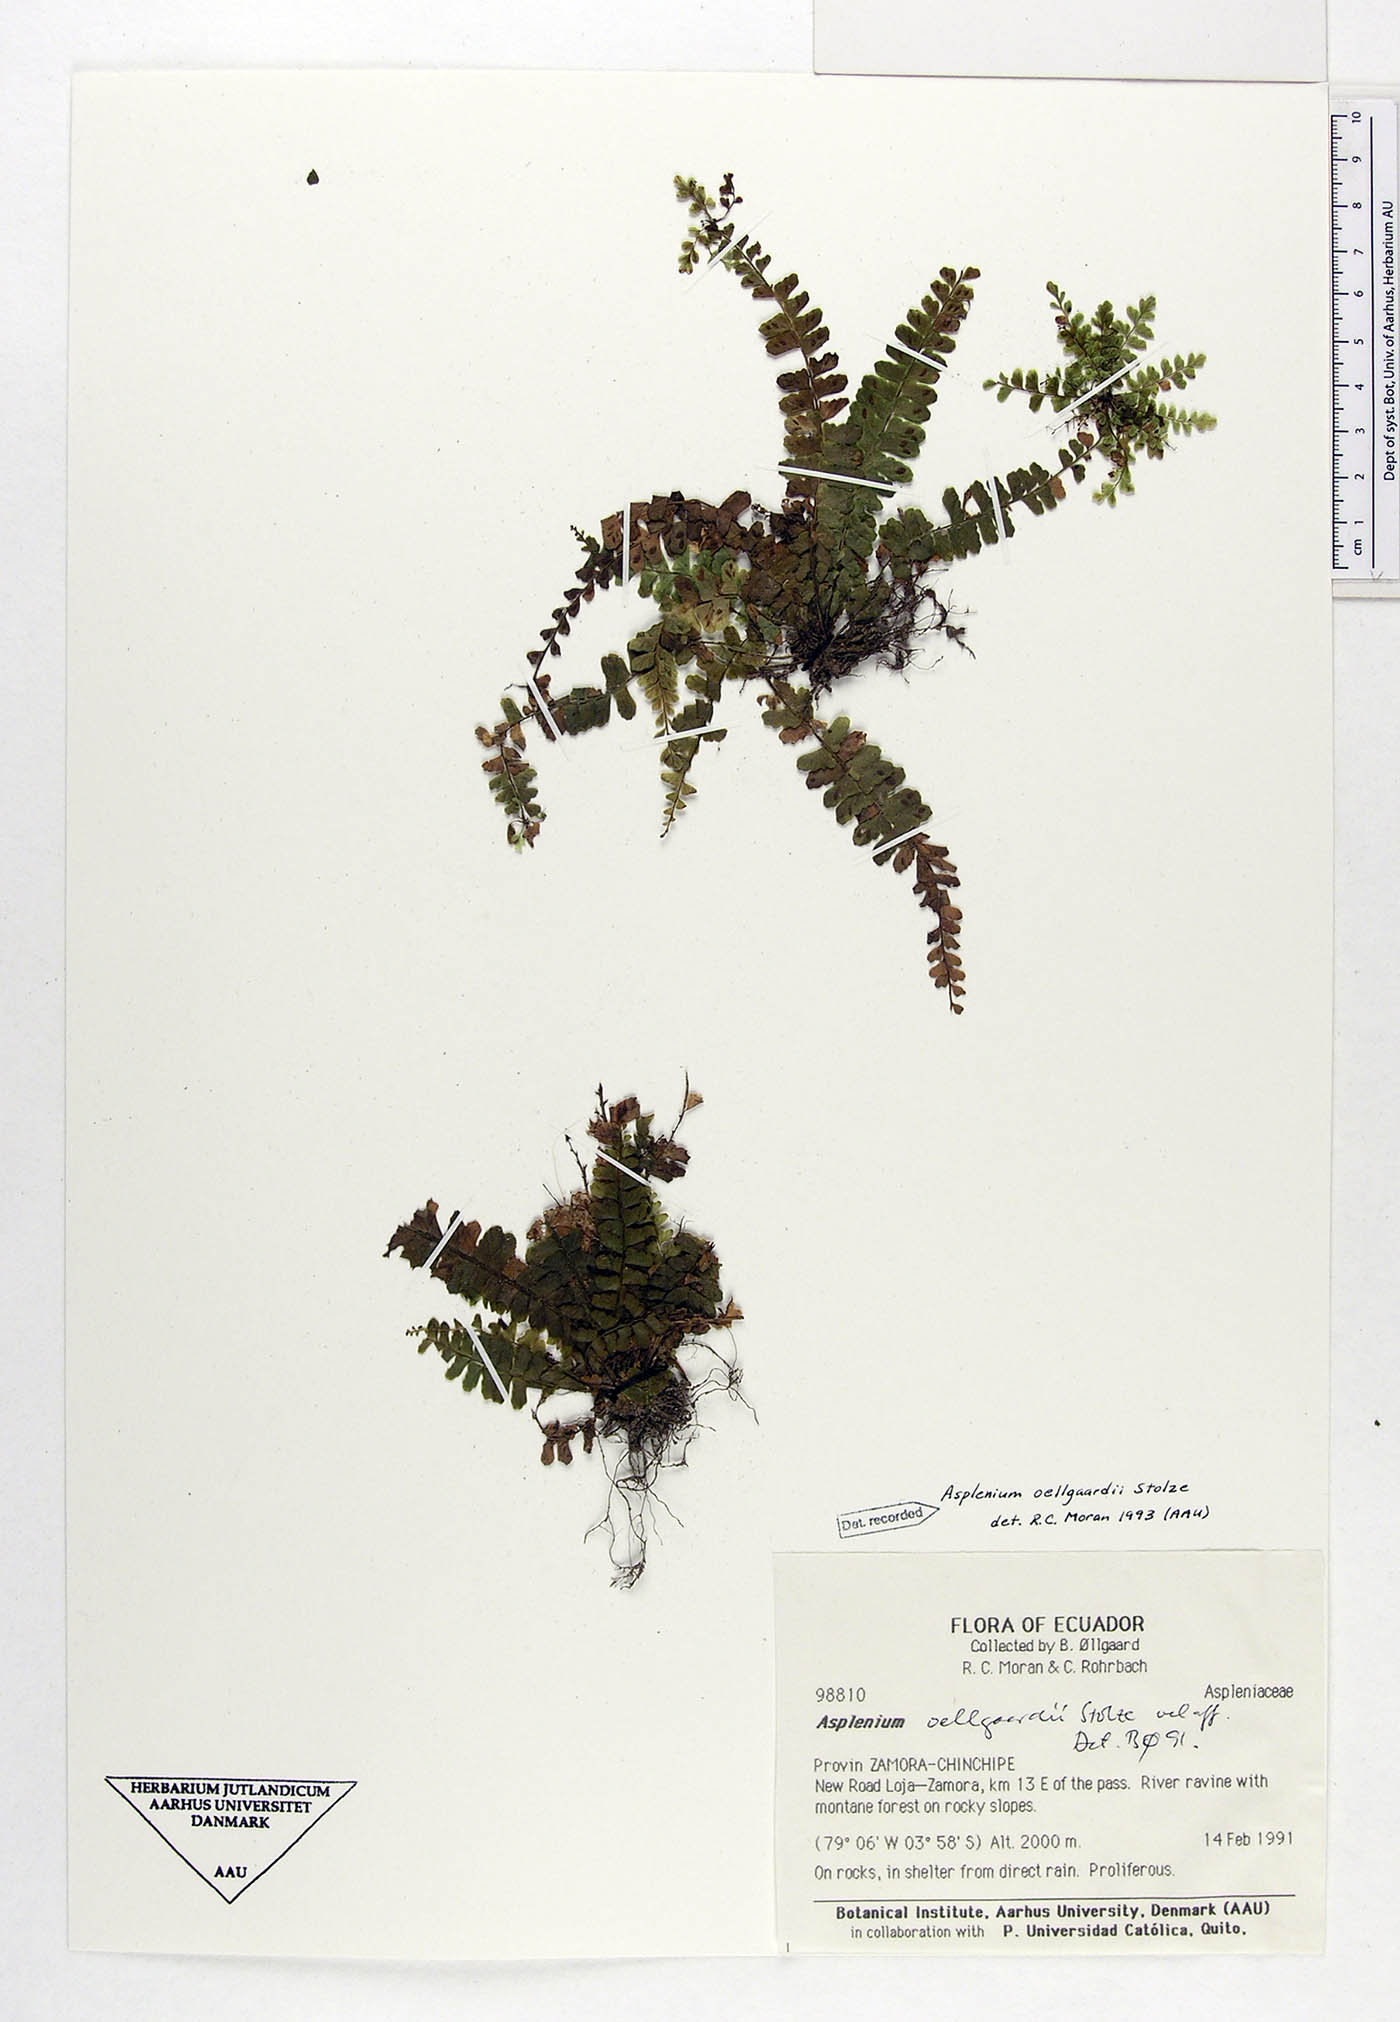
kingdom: Plantae
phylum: Tracheophyta
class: Polypodiopsida
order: Polypodiales
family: Aspleniaceae
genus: Asplenium
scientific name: Asplenium oellgaardii
